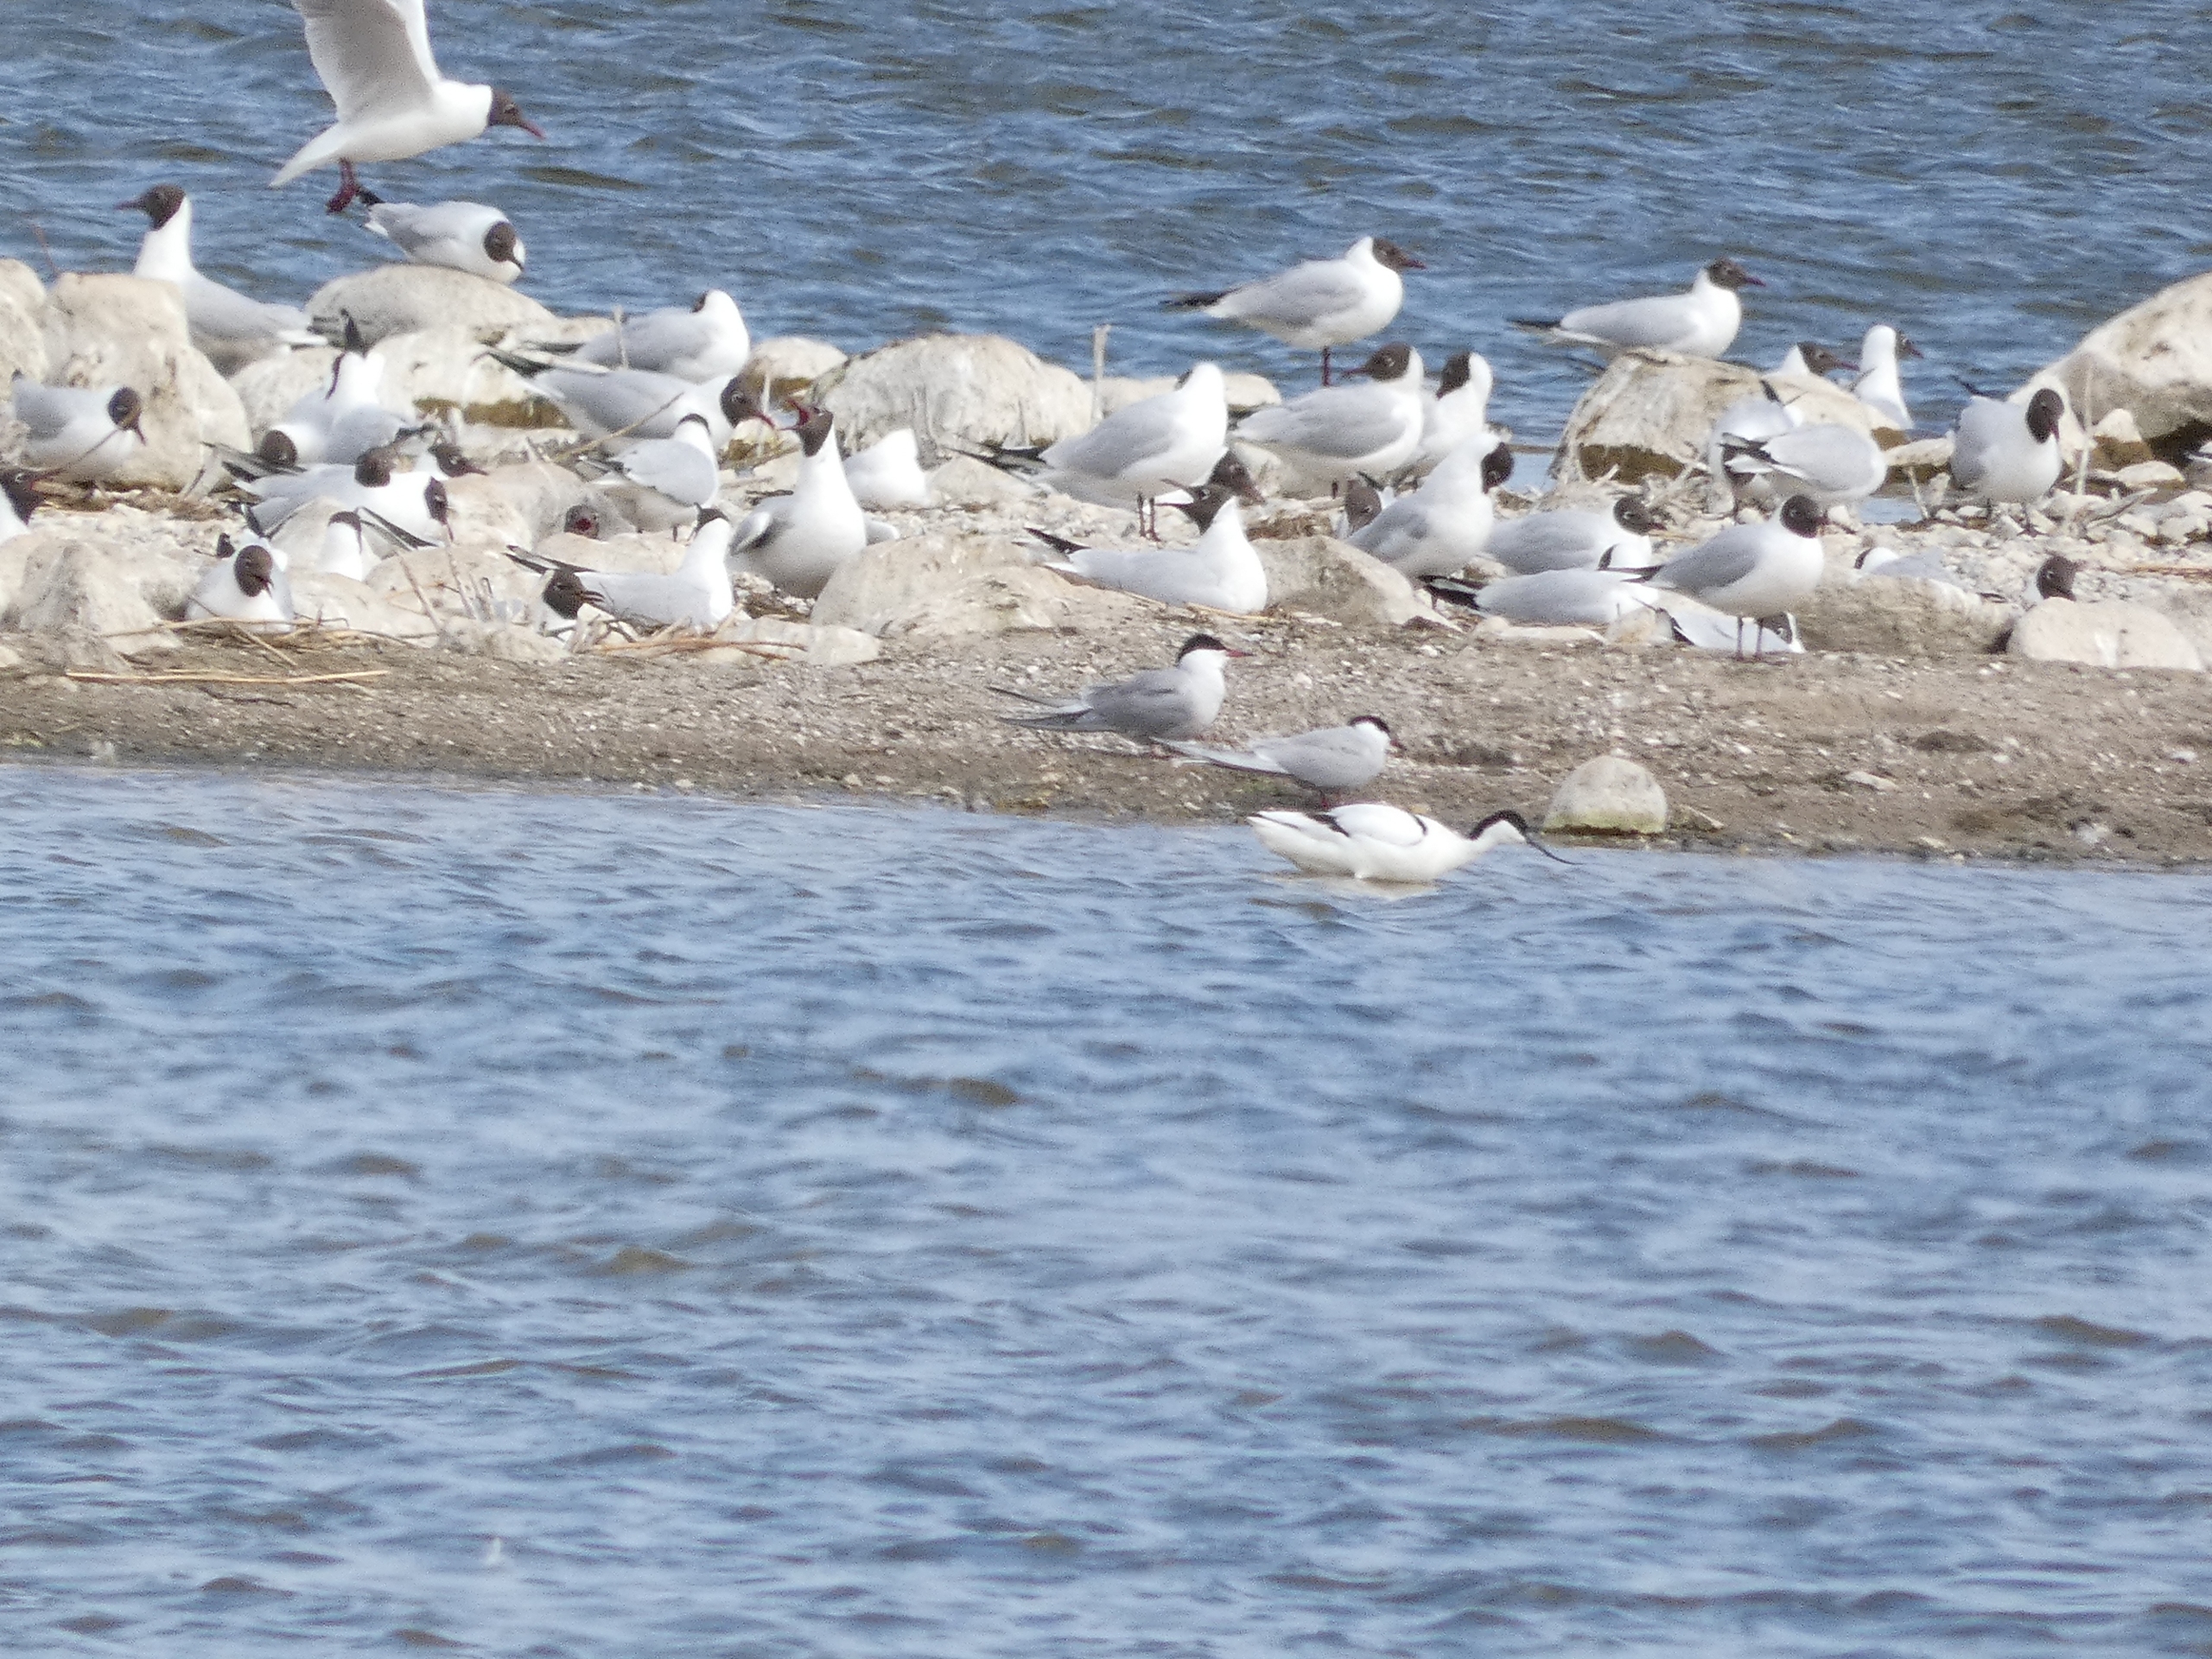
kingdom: Animalia
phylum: Chordata
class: Aves
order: Charadriiformes
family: Laridae
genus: Sterna
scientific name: Sterna hirundo
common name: Fjordterne
